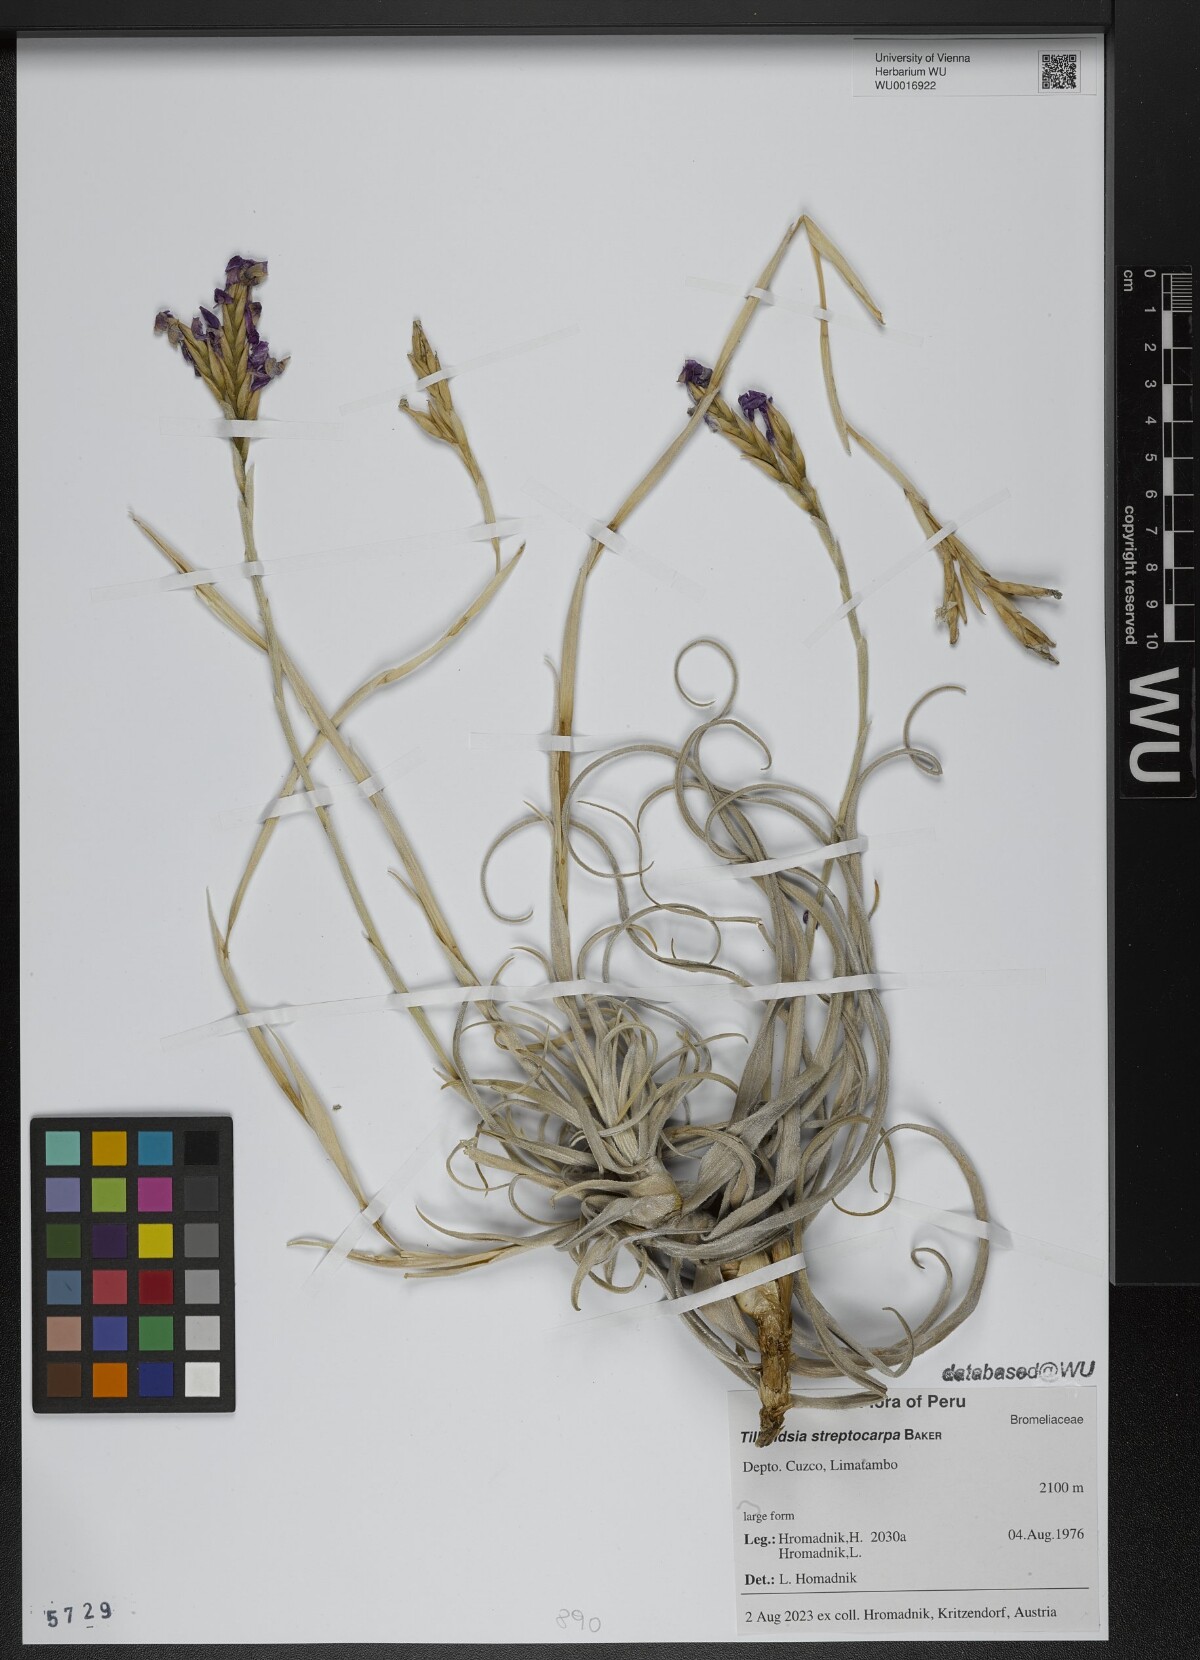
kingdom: Plantae
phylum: Tracheophyta
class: Liliopsida
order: Poales
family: Bromeliaceae
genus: Tillandsia
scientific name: Tillandsia streptocarpa
